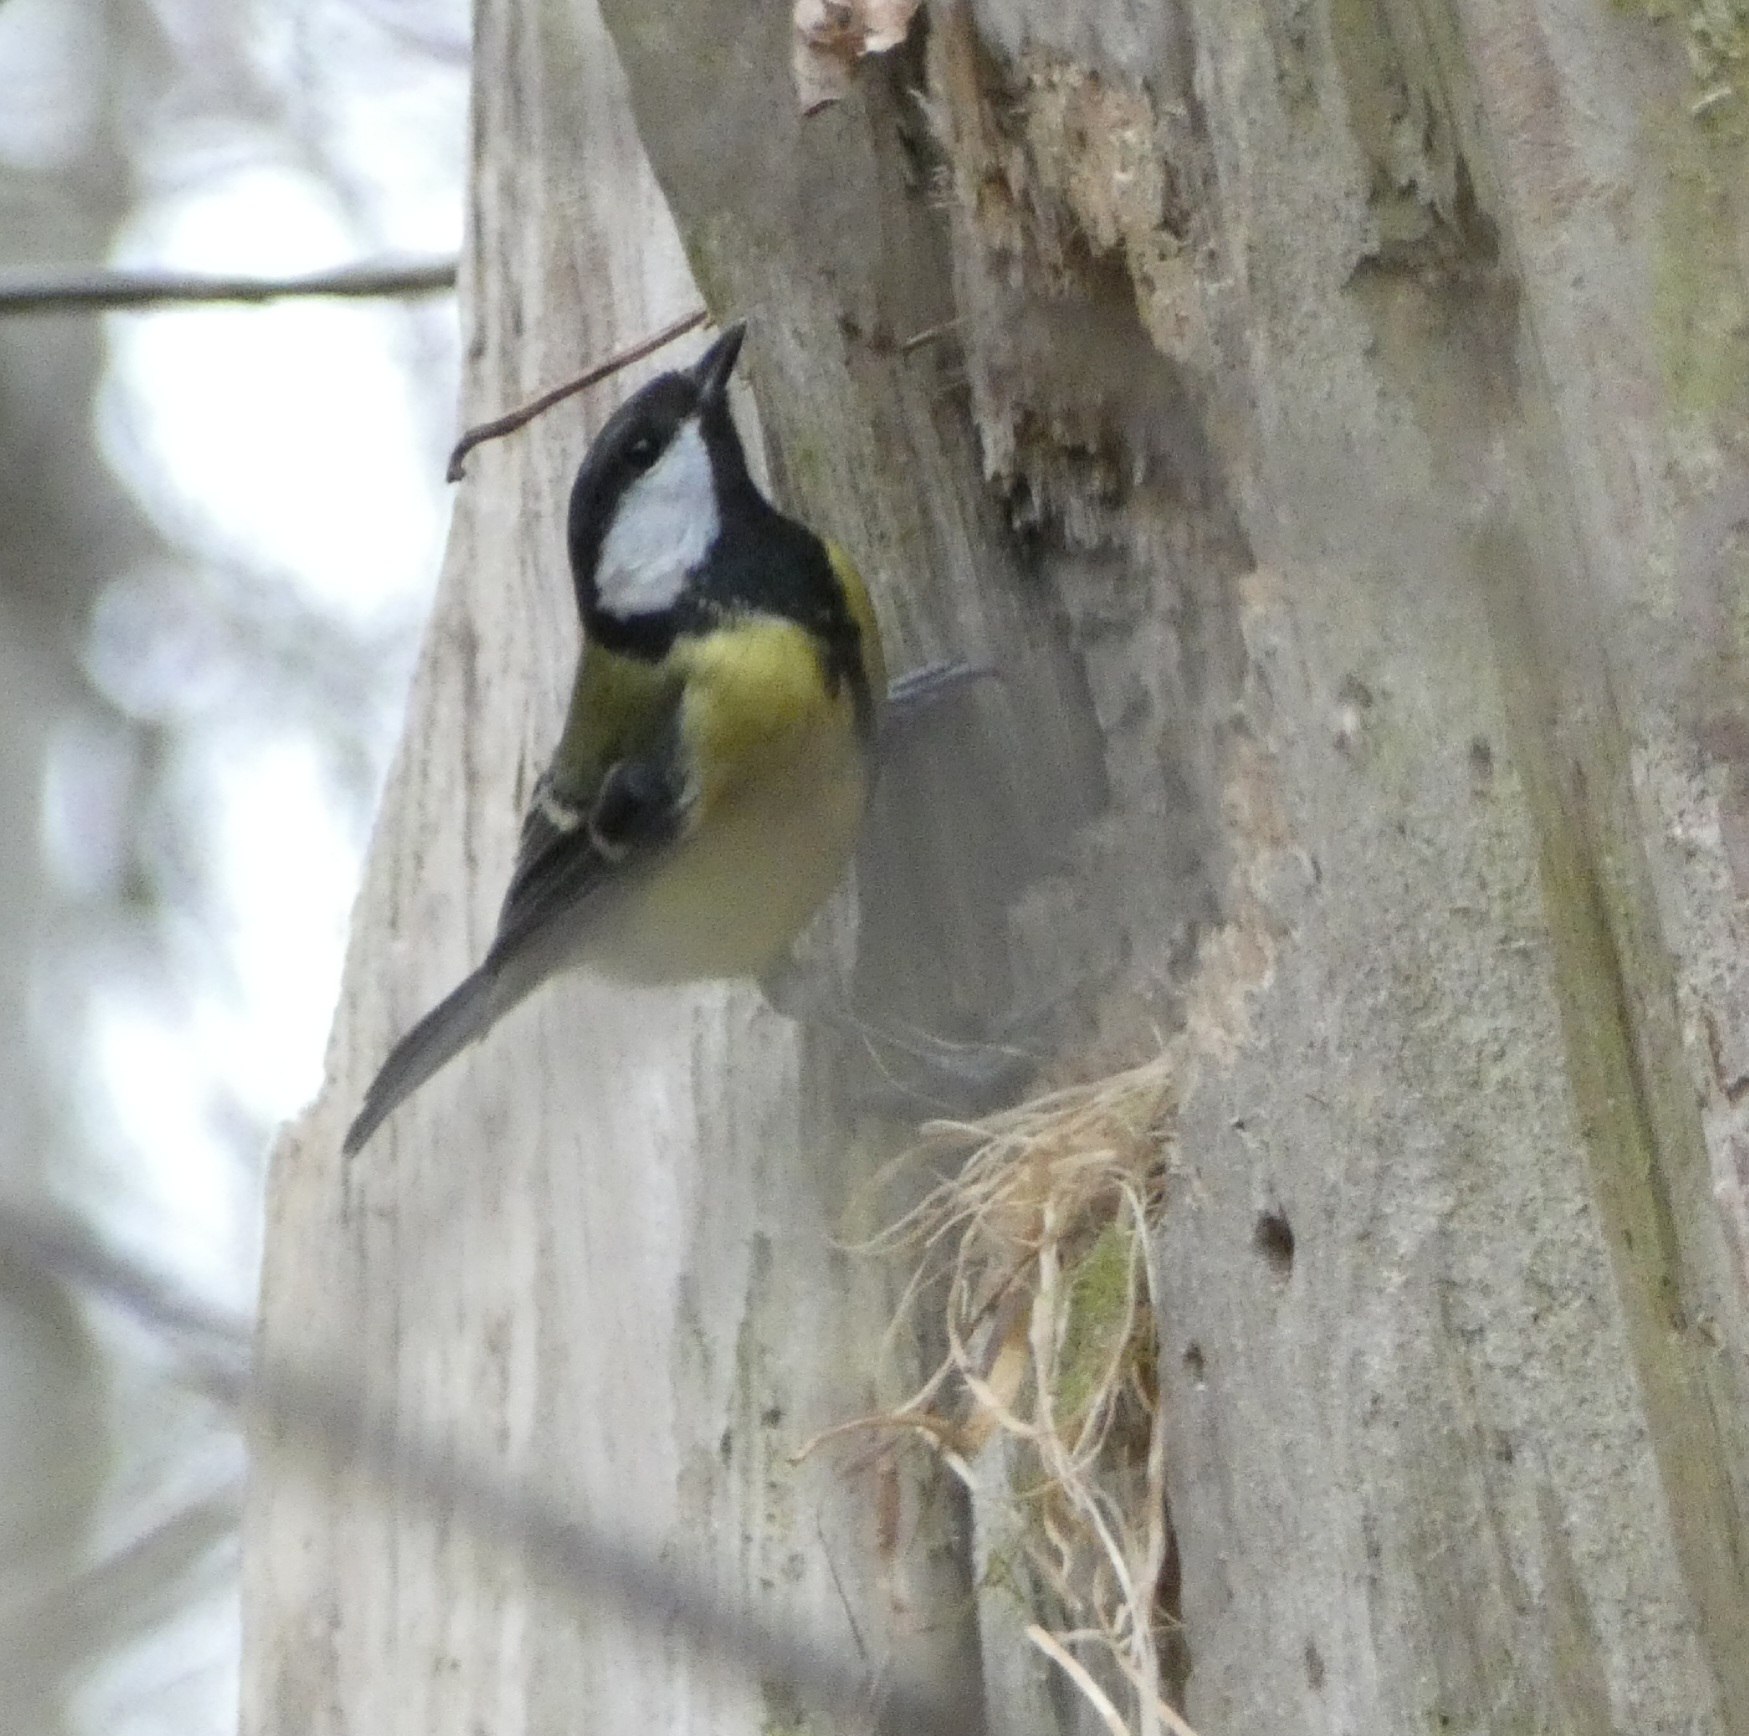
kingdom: Animalia
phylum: Chordata
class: Aves
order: Passeriformes
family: Paridae
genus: Parus
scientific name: Parus major
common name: Musvit
